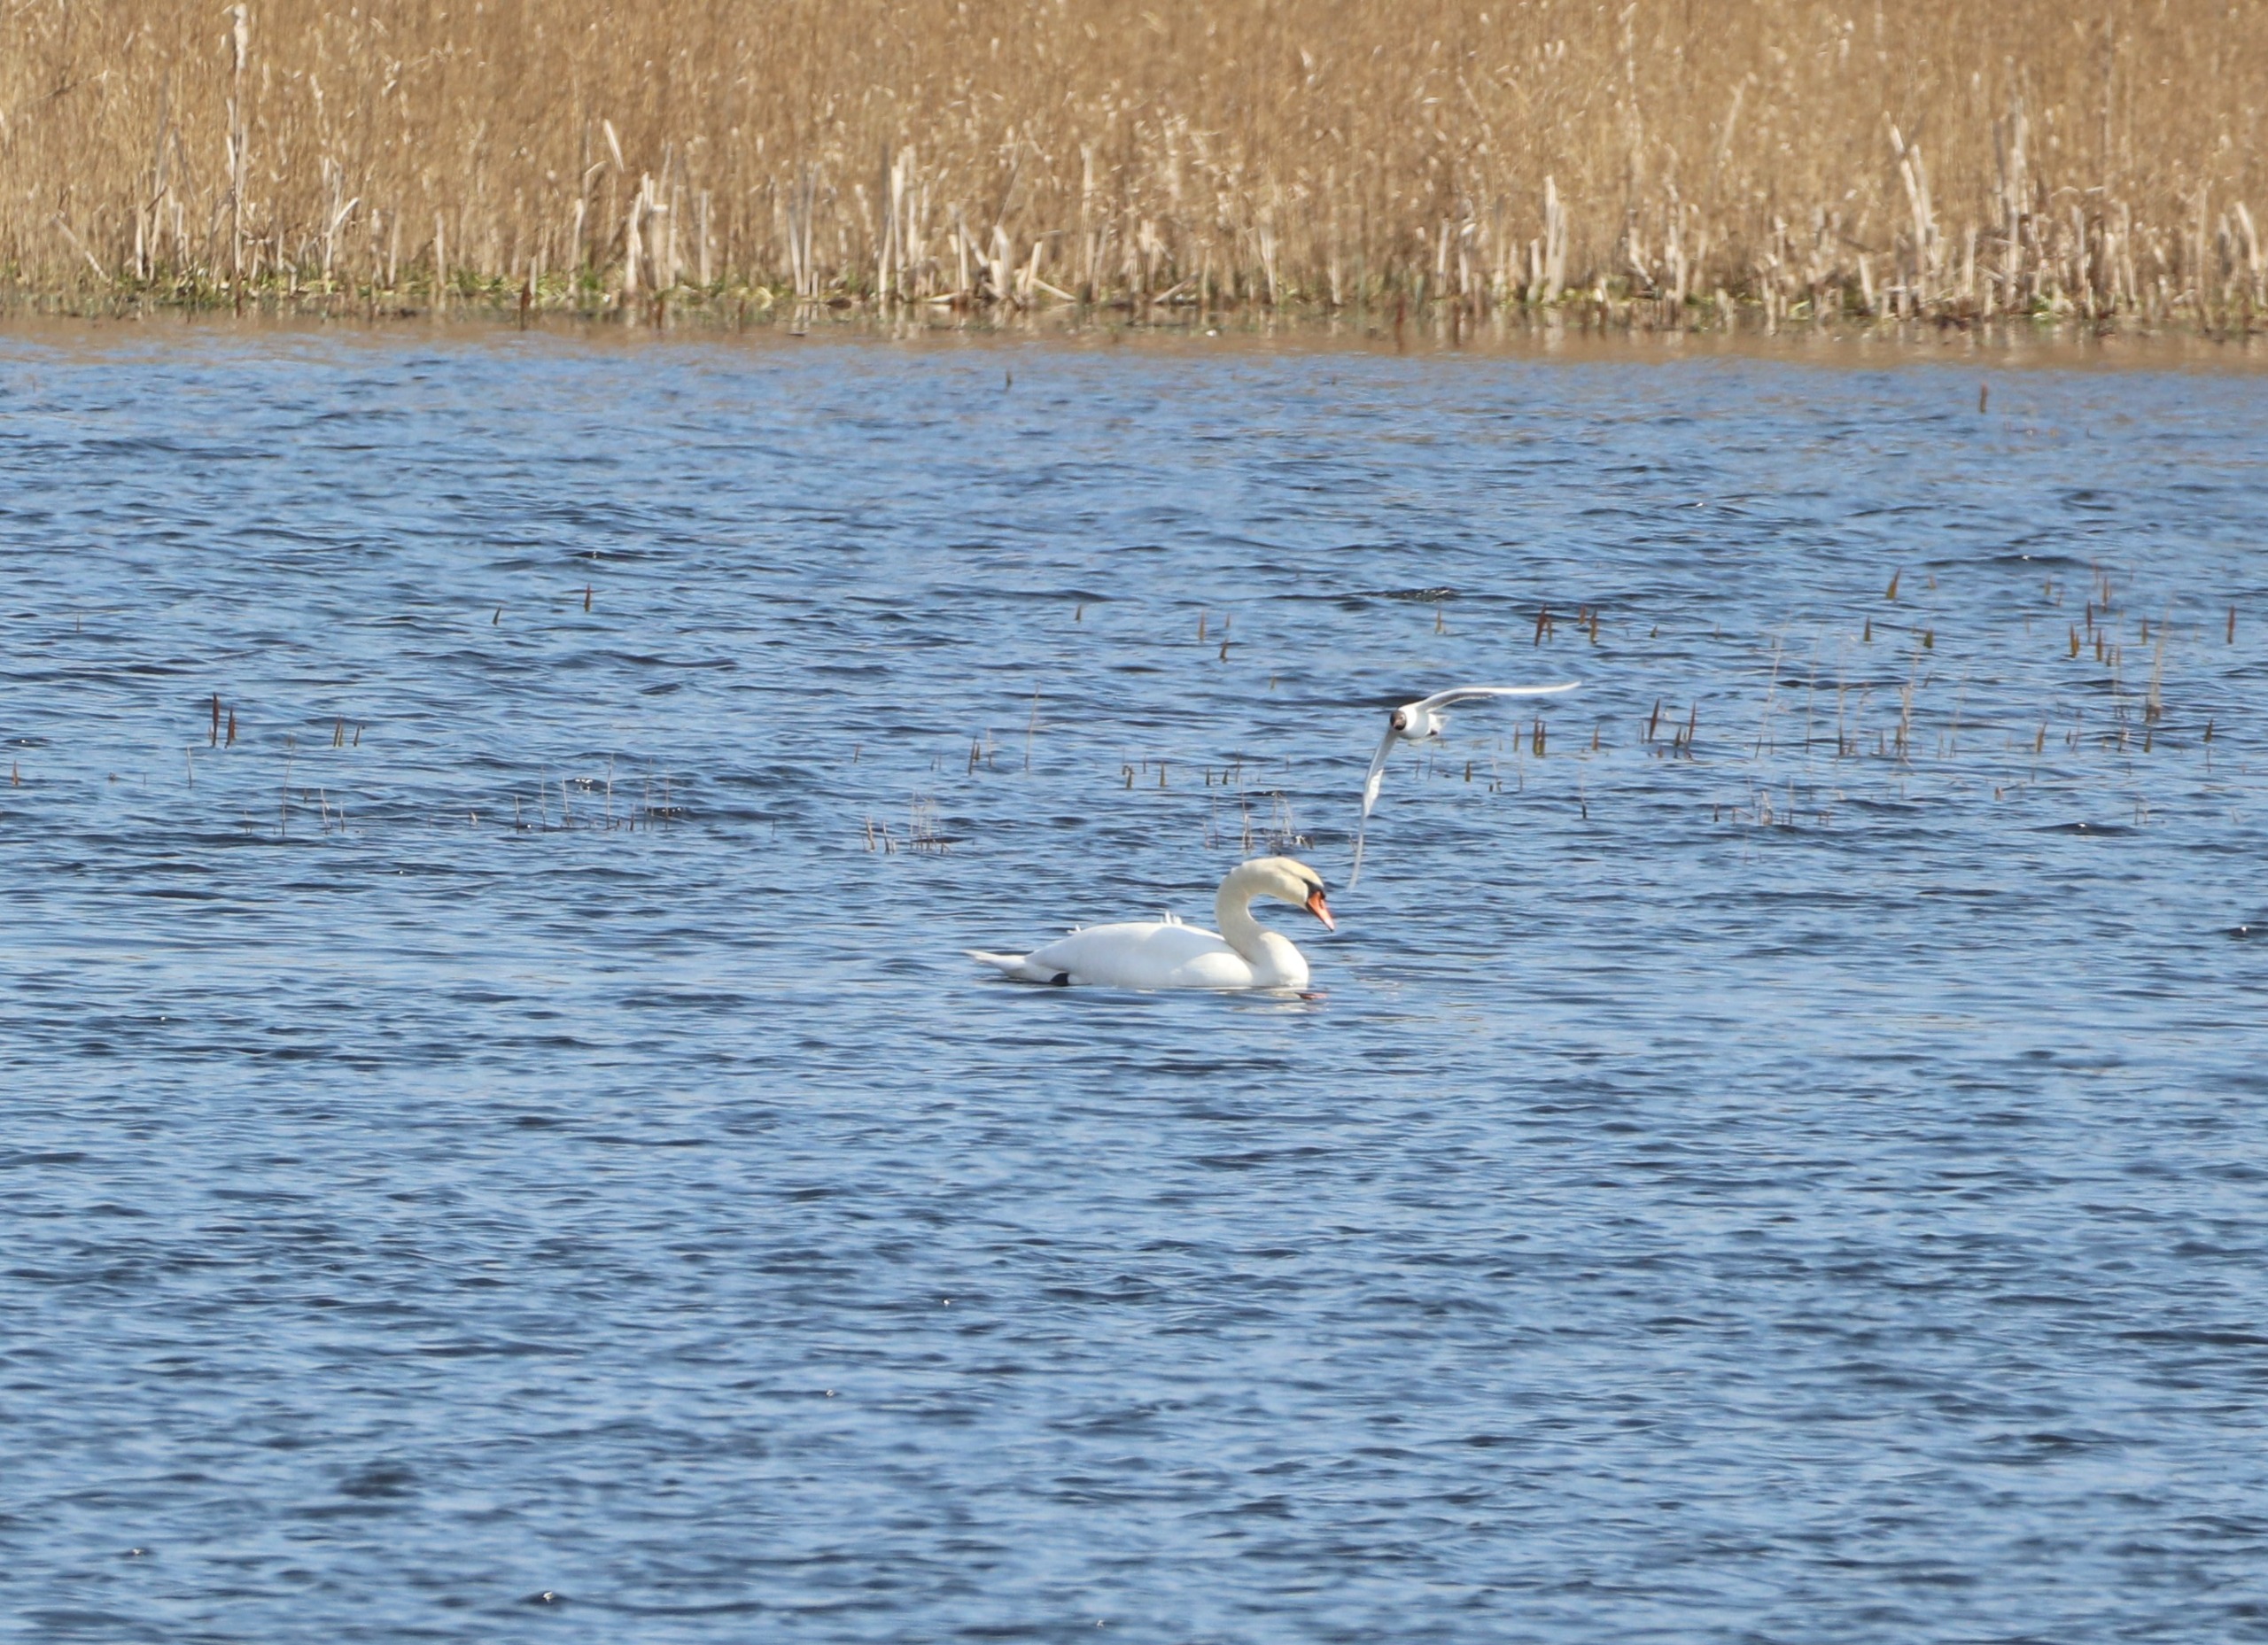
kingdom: Animalia
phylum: Chordata
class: Aves
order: Anseriformes
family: Anatidae
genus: Cygnus
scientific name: Cygnus olor
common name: Knopsvane
